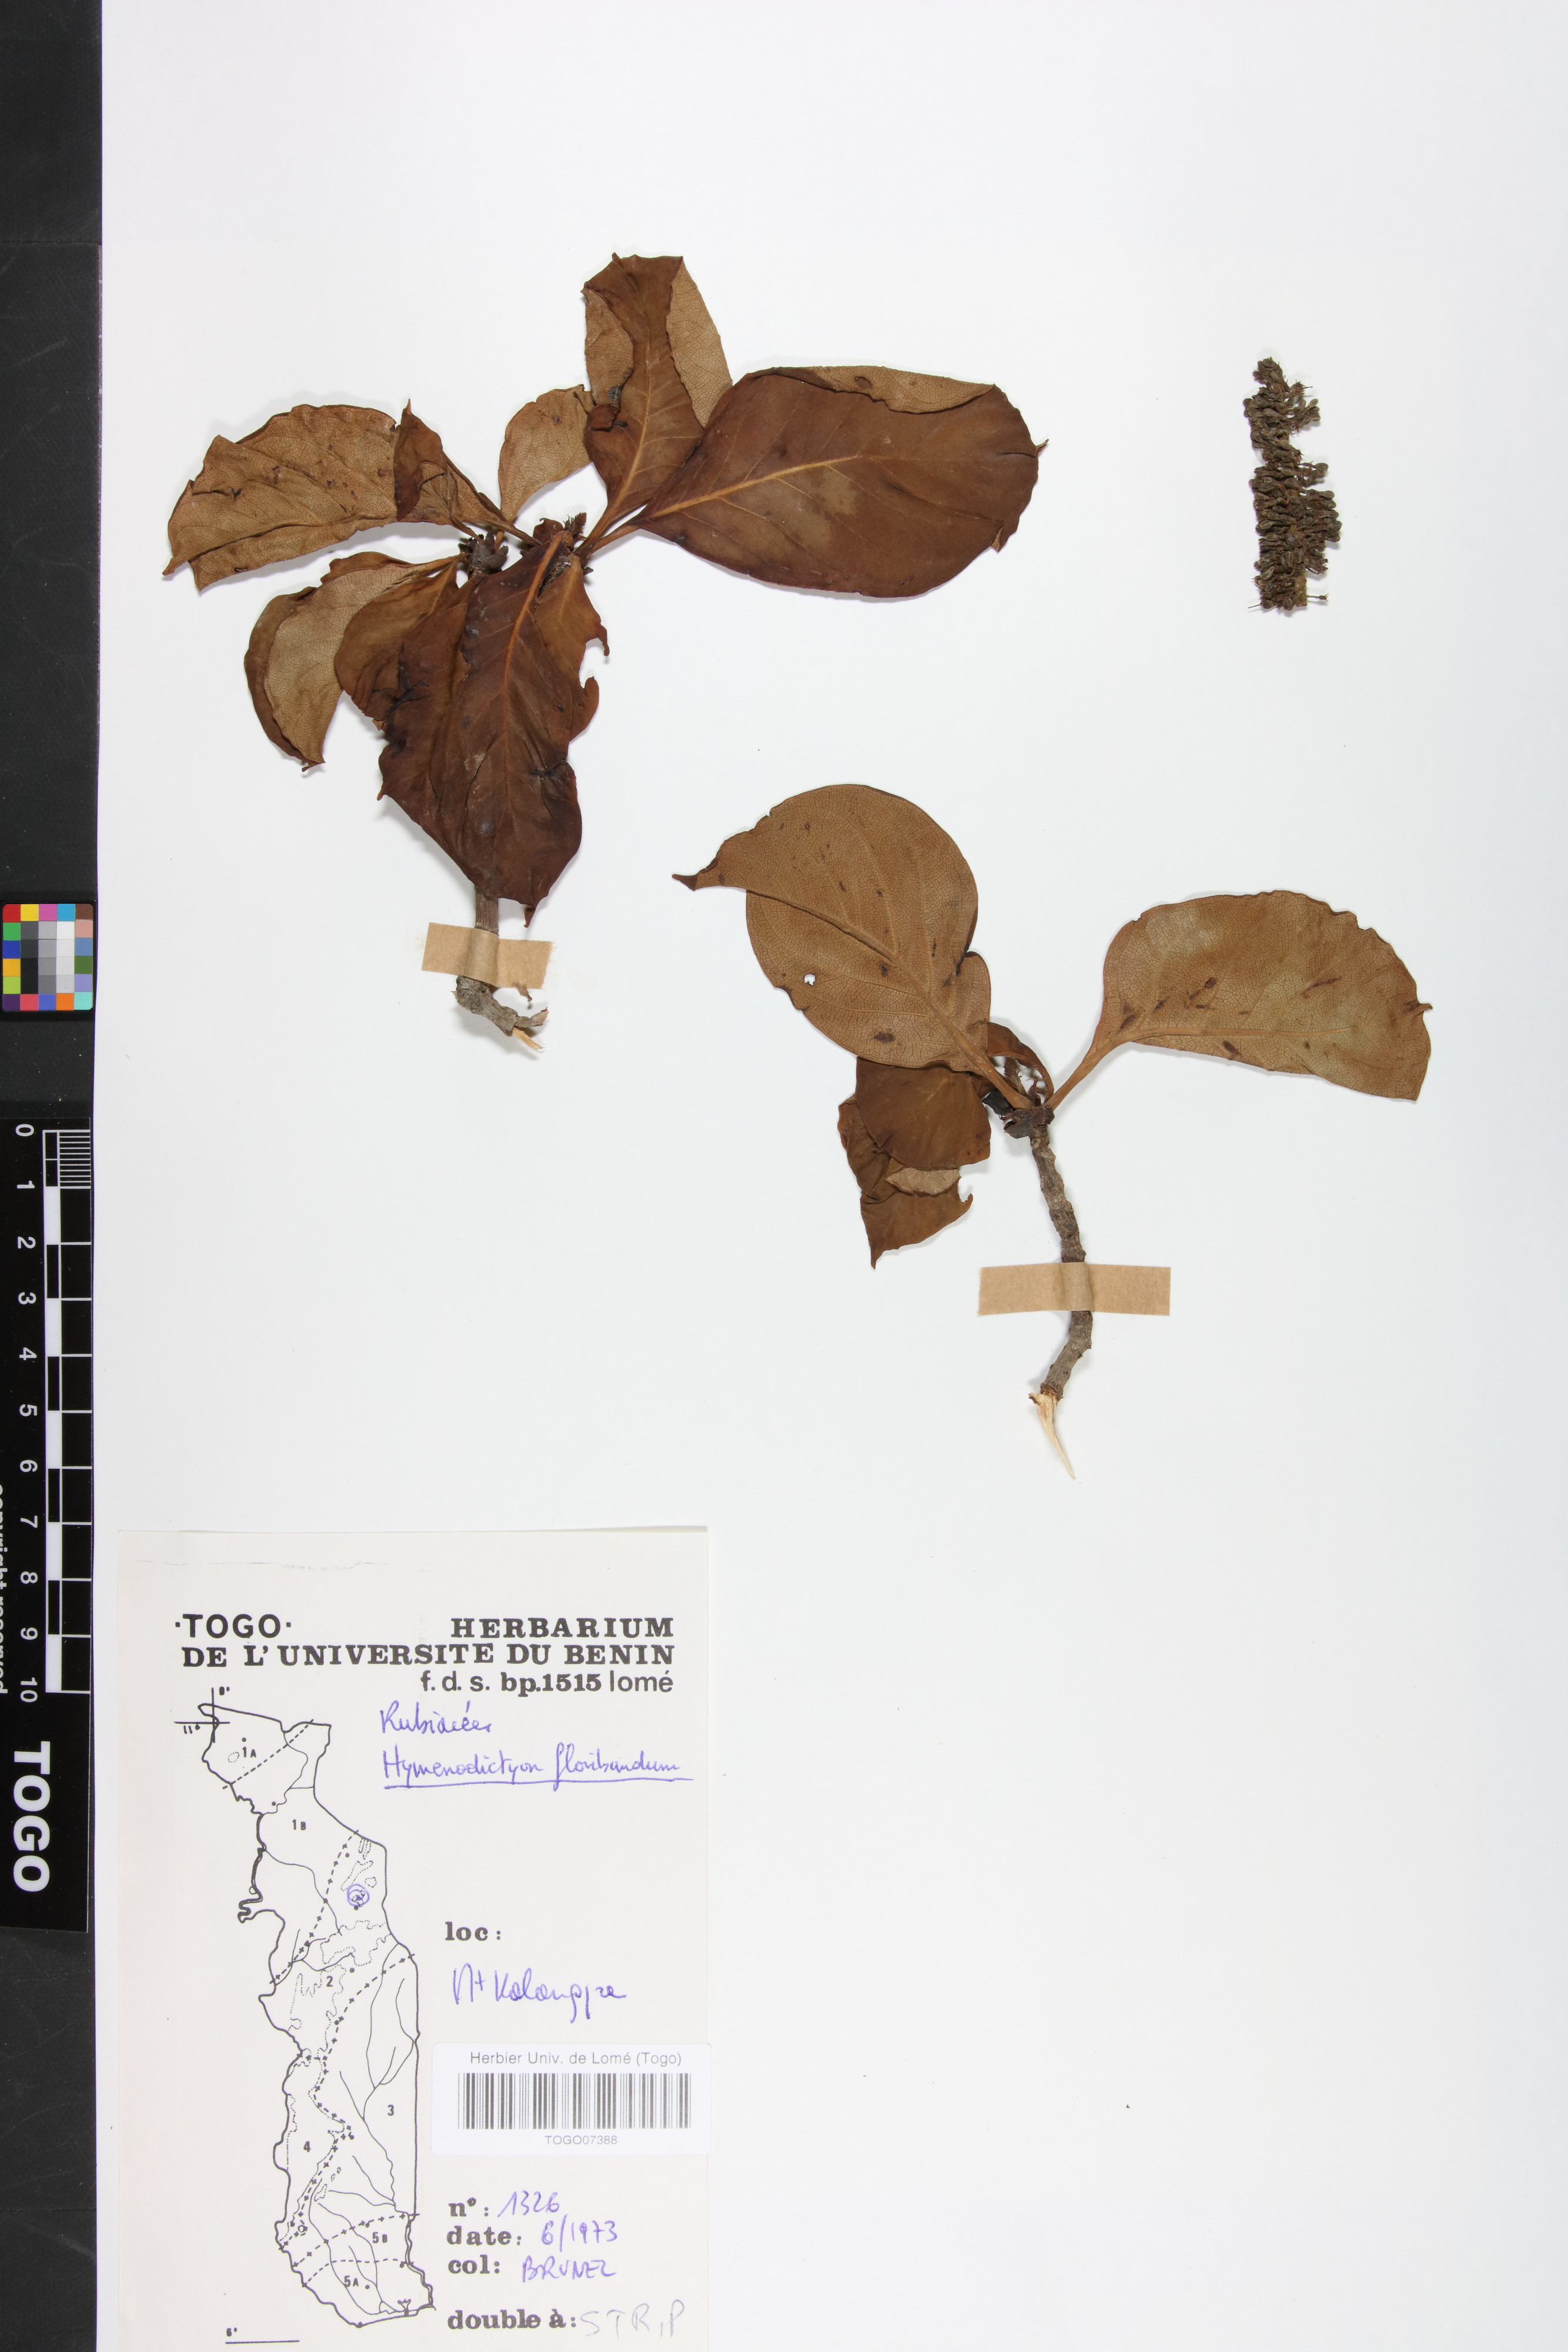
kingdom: Plantae
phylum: Tracheophyta
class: Magnoliopsida
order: Gentianales
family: Rubiaceae
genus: Hymenodictyon
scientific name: Hymenodictyon floribundum
